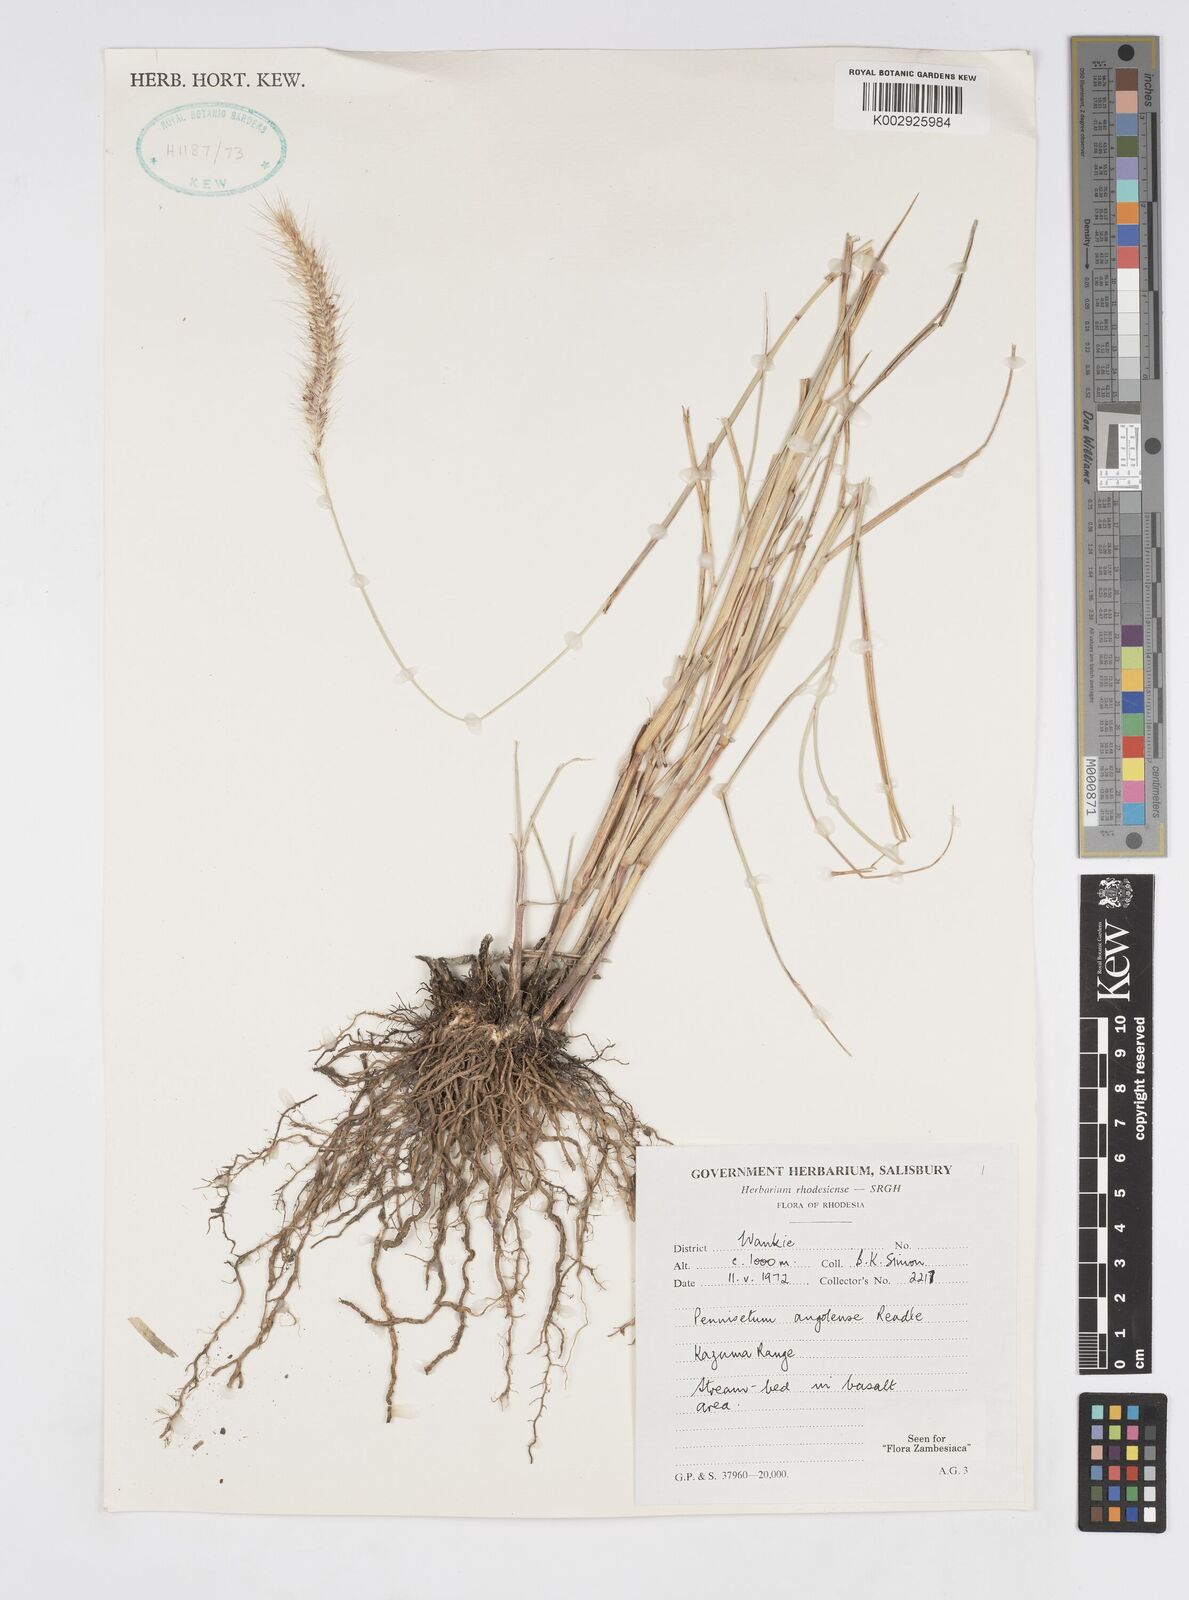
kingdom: Plantae
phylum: Tracheophyta
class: Liliopsida
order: Poales
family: Poaceae
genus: Cenchrus
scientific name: Cenchrus caudatus
